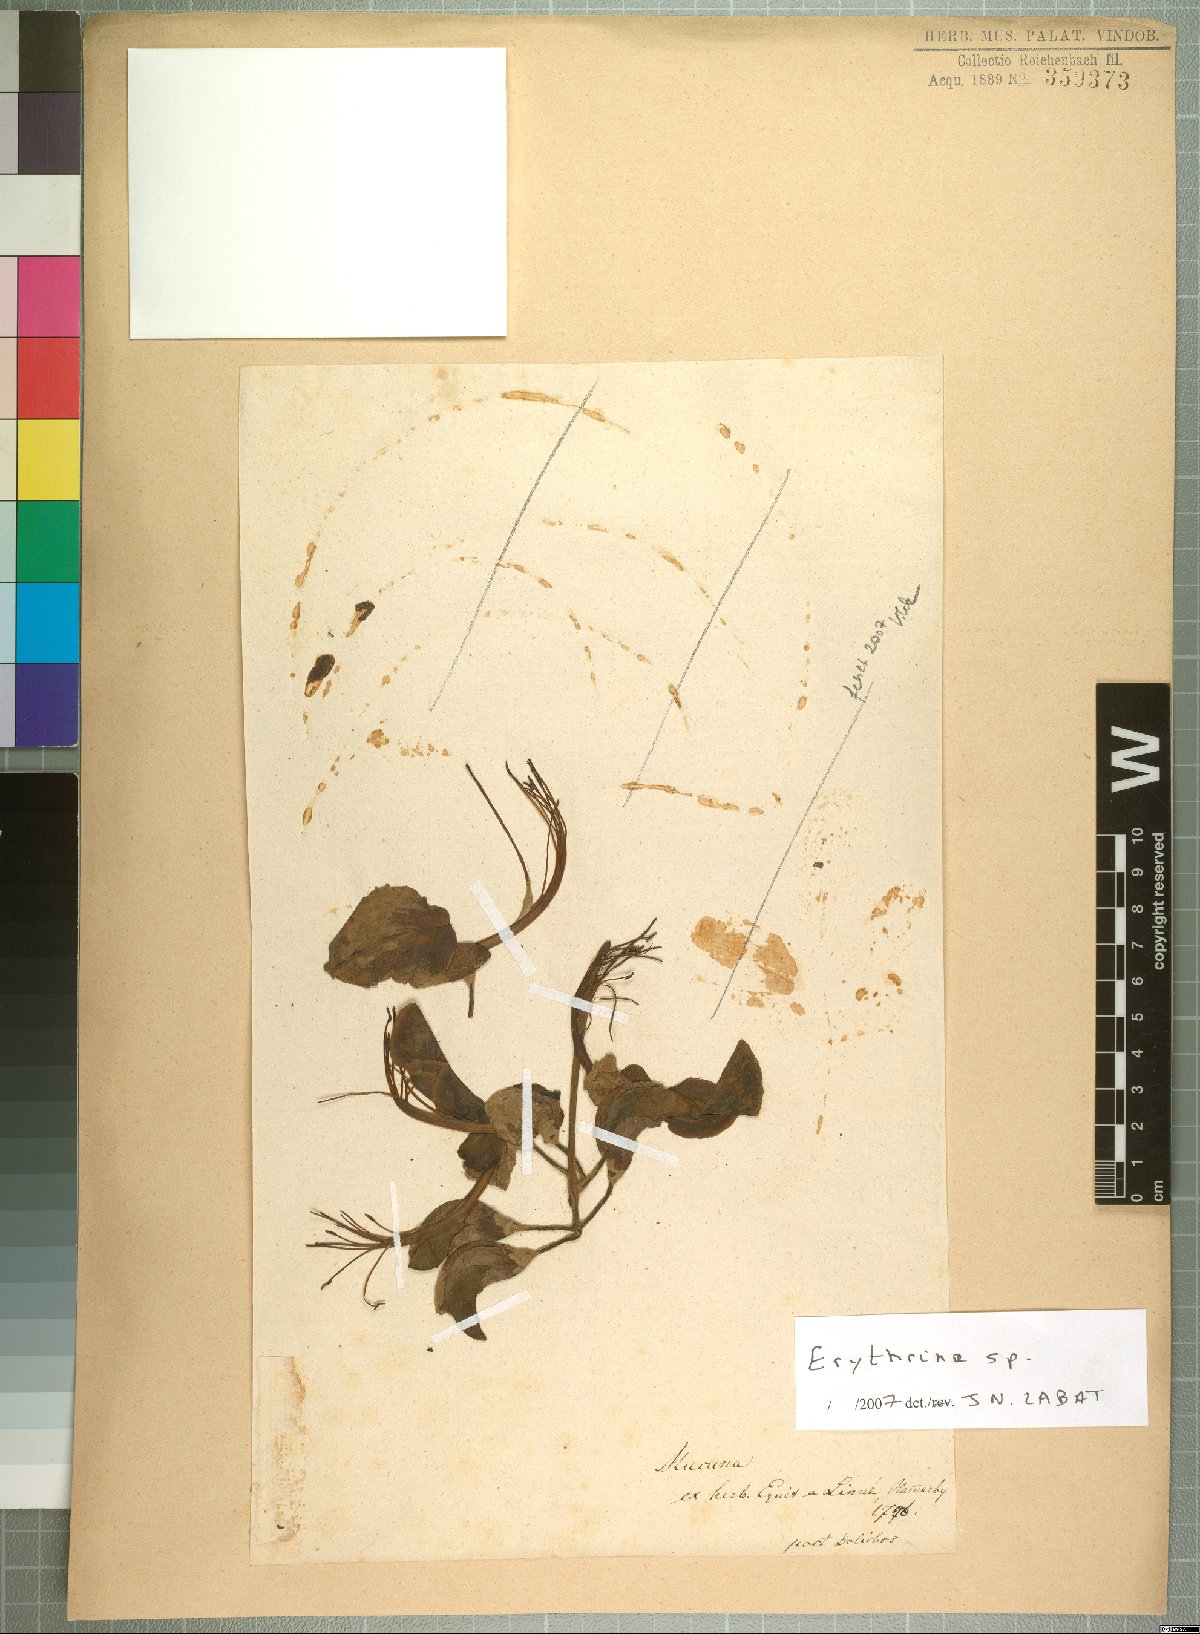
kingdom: Plantae
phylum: Tracheophyta
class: Magnoliopsida
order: Fabales
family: Fabaceae
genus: Erythrina
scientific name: Erythrina
